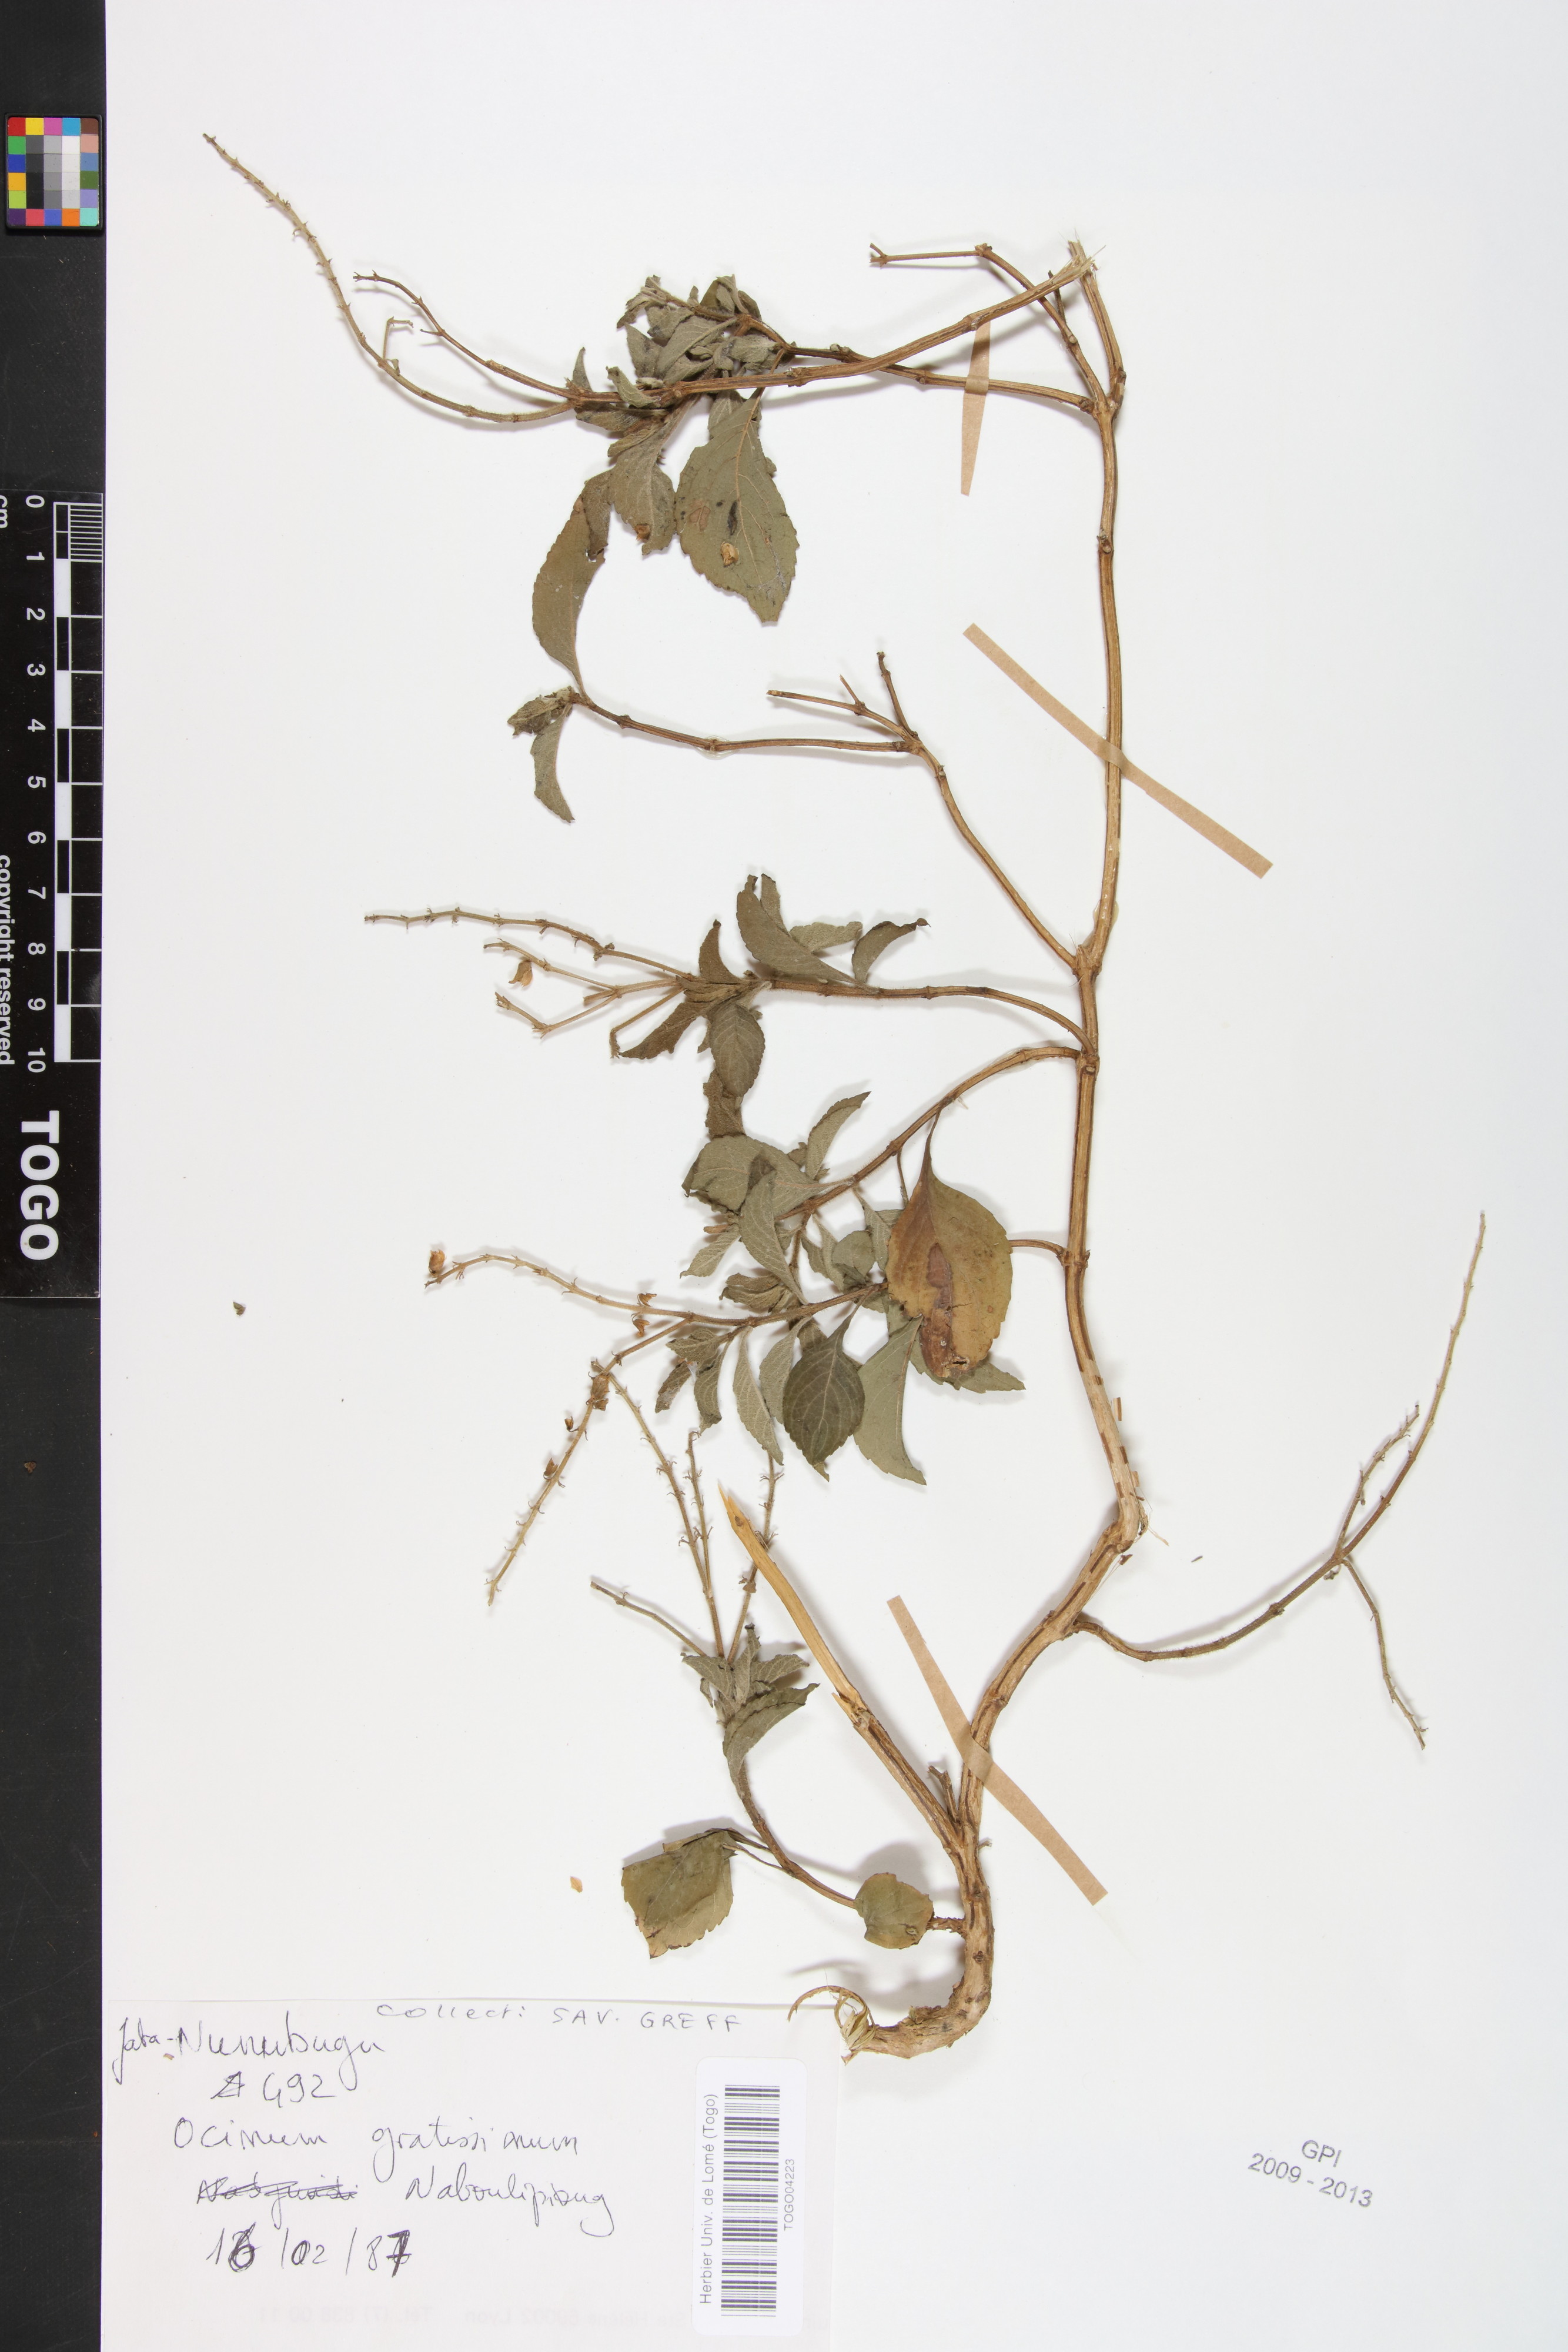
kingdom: Plantae
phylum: Tracheophyta
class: Magnoliopsida
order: Lamiales
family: Lamiaceae
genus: Ocimum
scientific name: Ocimum gratissimum
